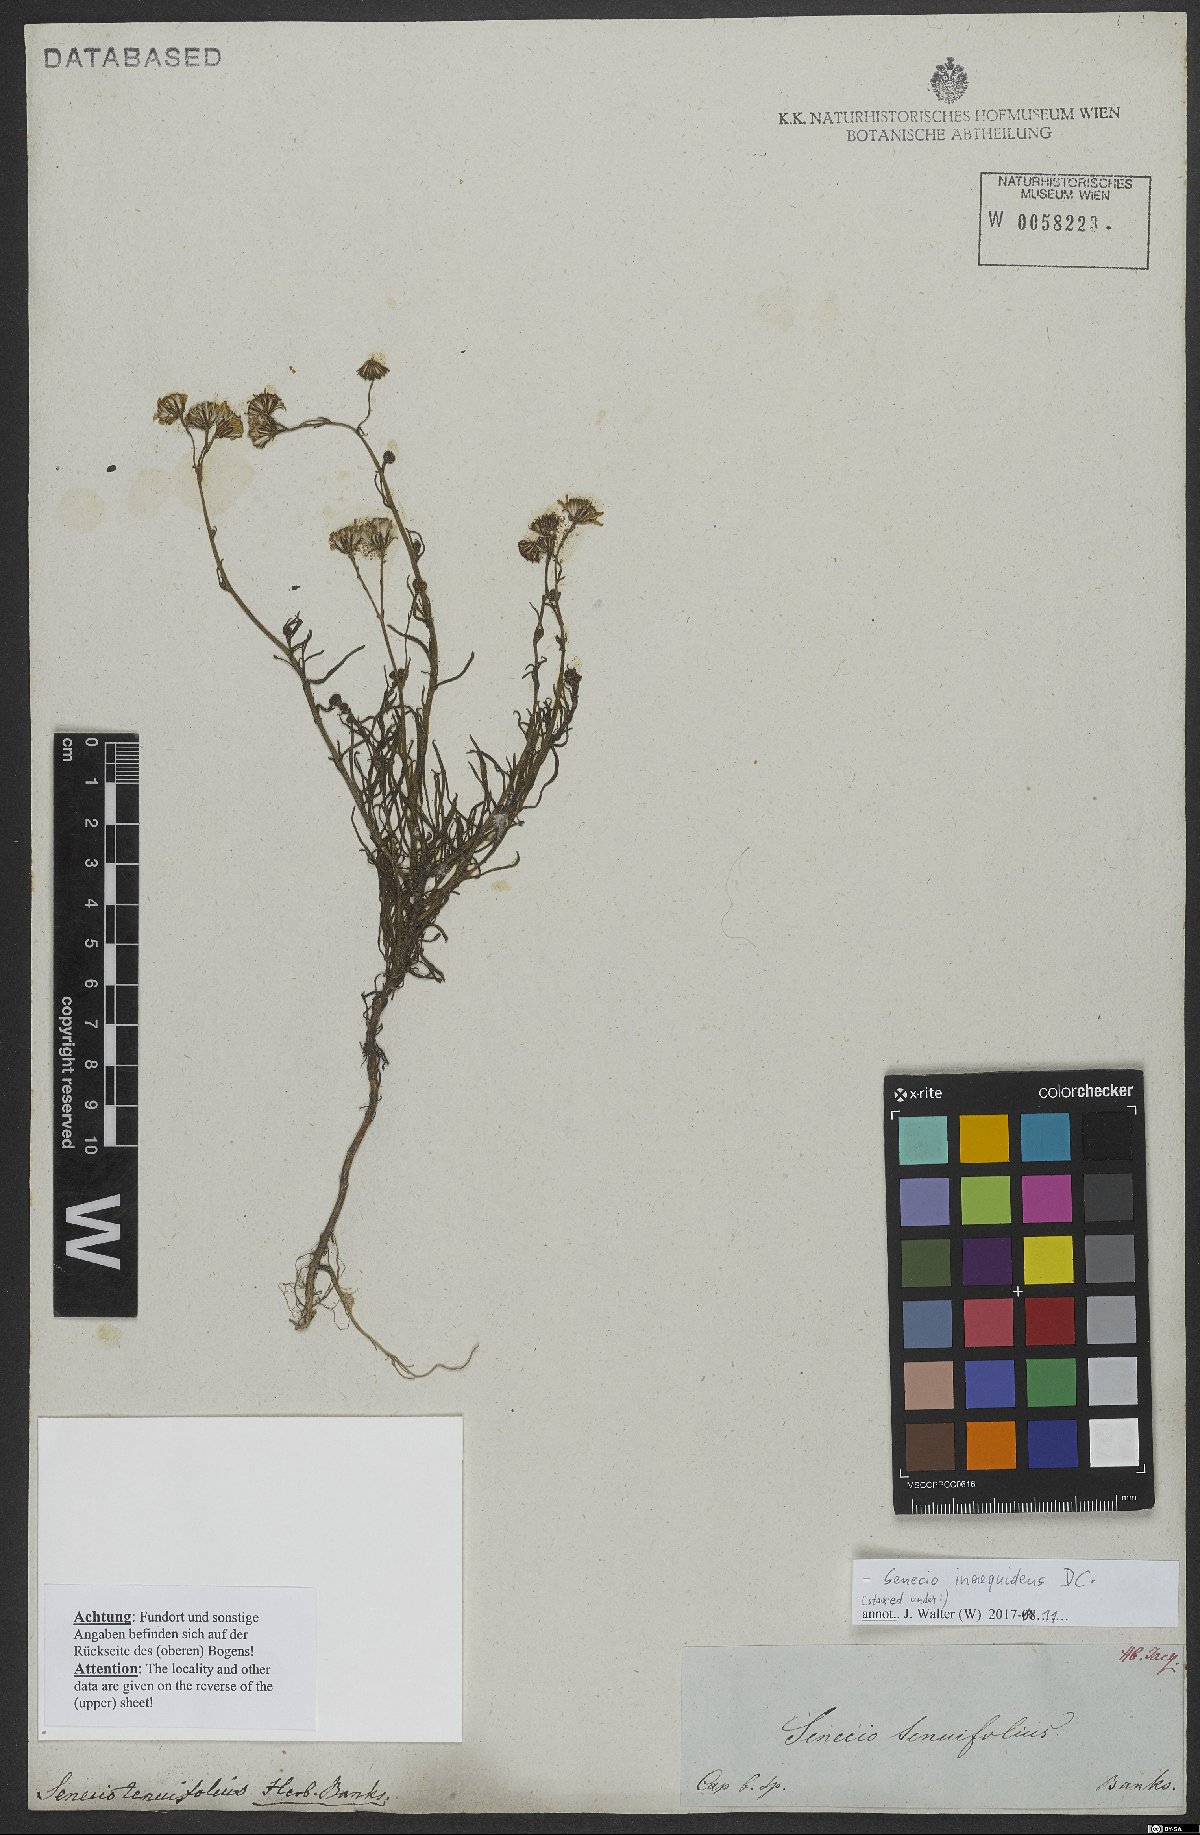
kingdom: Plantae
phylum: Tracheophyta
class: Magnoliopsida
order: Asterales
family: Asteraceae
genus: Senecio
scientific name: Senecio tenuifolius
